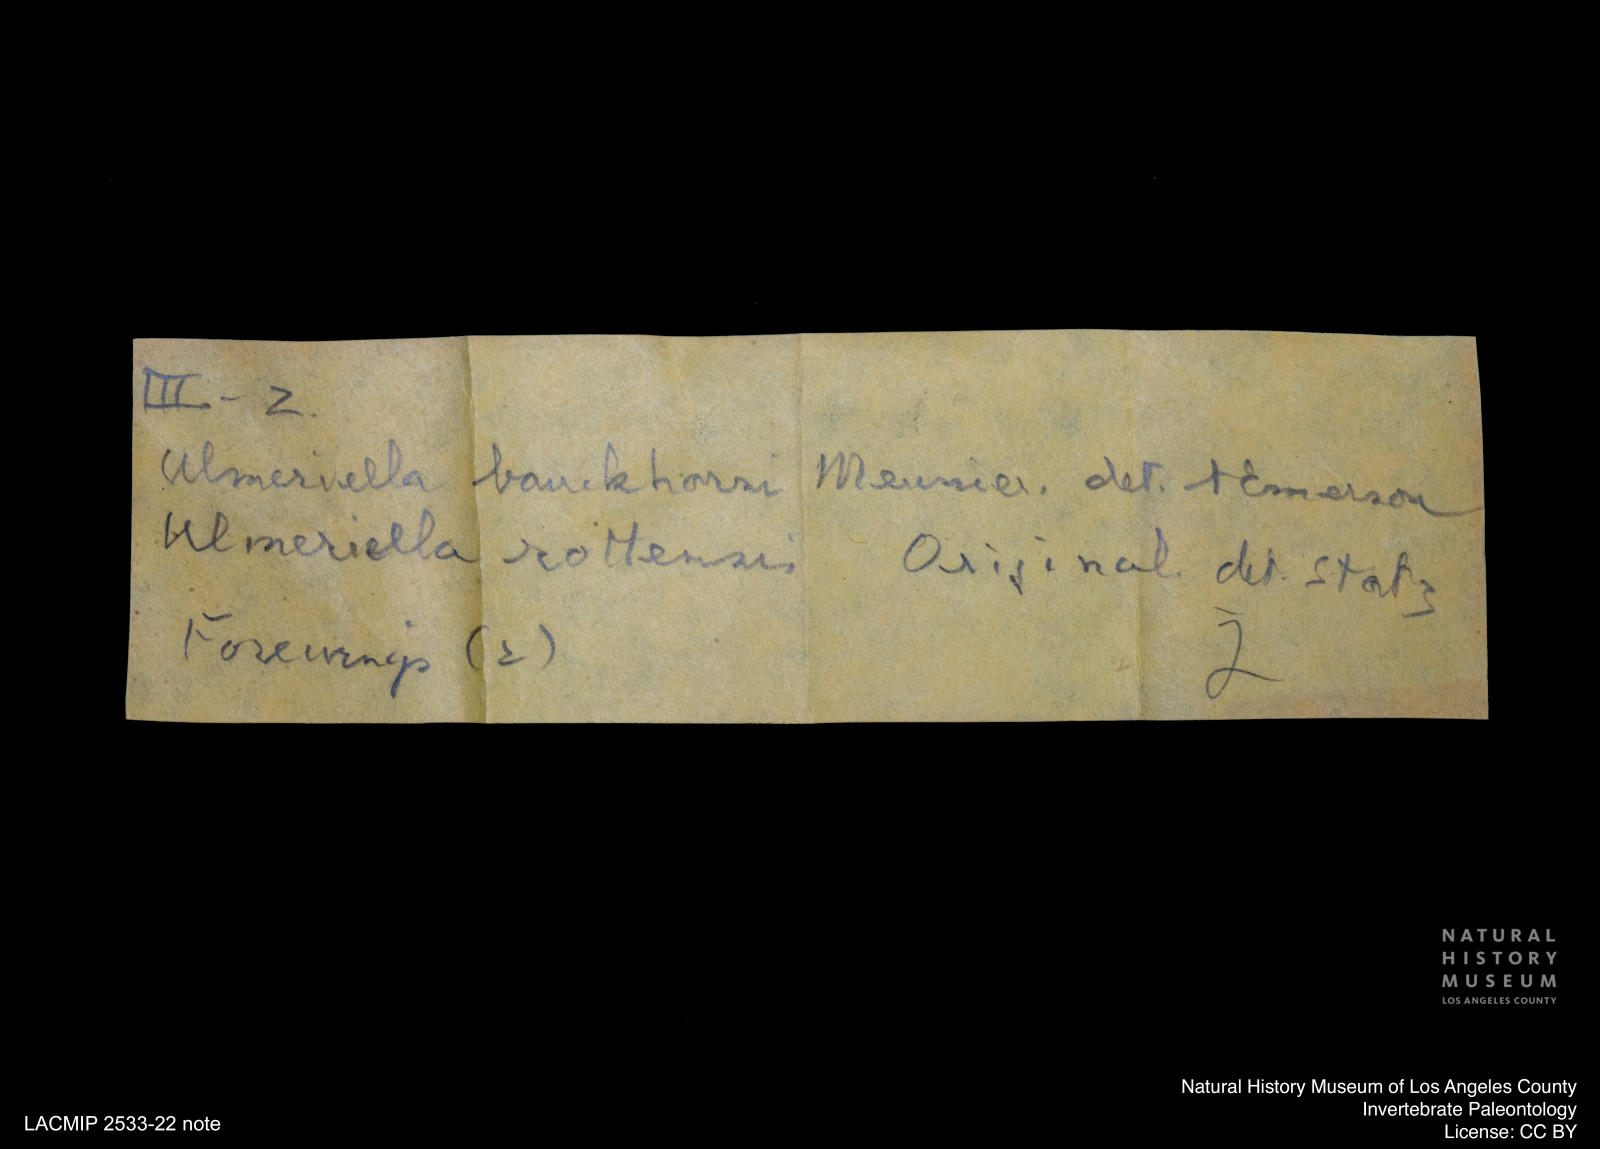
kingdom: Animalia
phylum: Arthropoda
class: Insecta
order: Blattodea
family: Hodotermitidae
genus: Ulmeriella
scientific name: Ulmeriella bauckhorni
